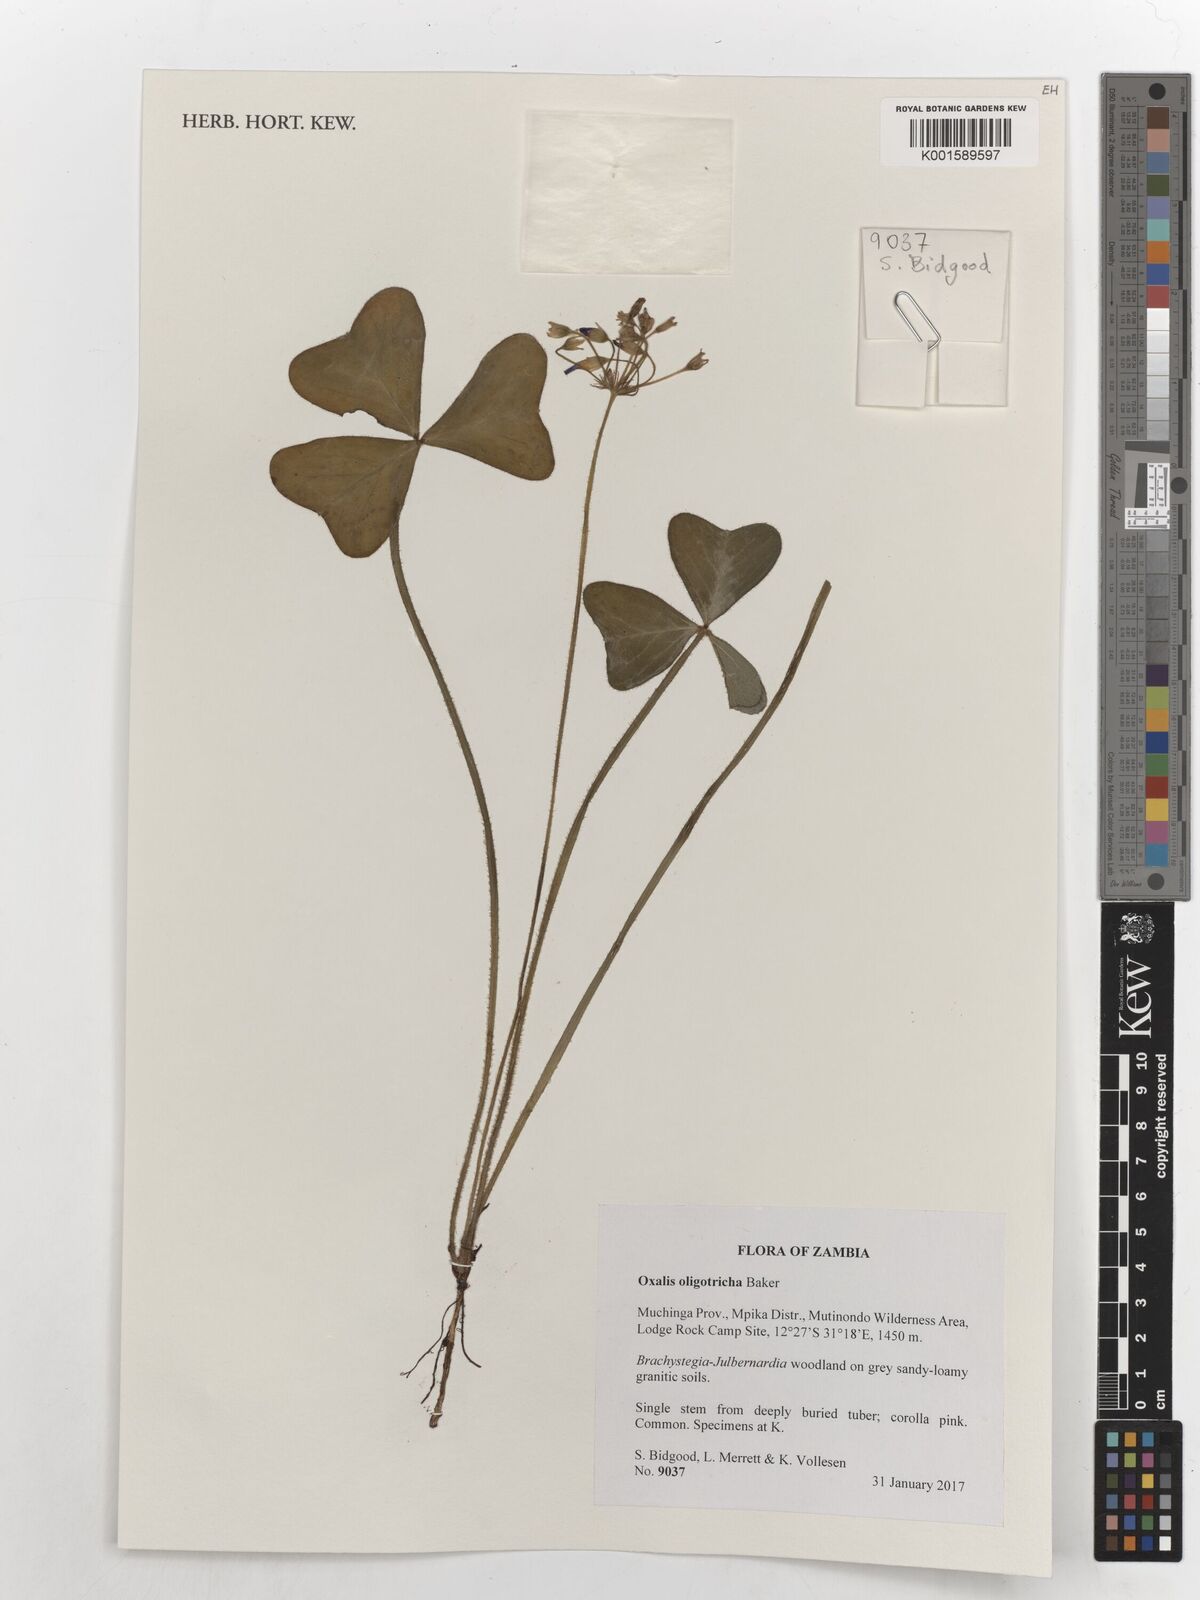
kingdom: Plantae
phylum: Tracheophyta
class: Magnoliopsida
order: Oxalidales
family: Oxalidaceae
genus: Oxalis
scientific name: Oxalis oligotricha
